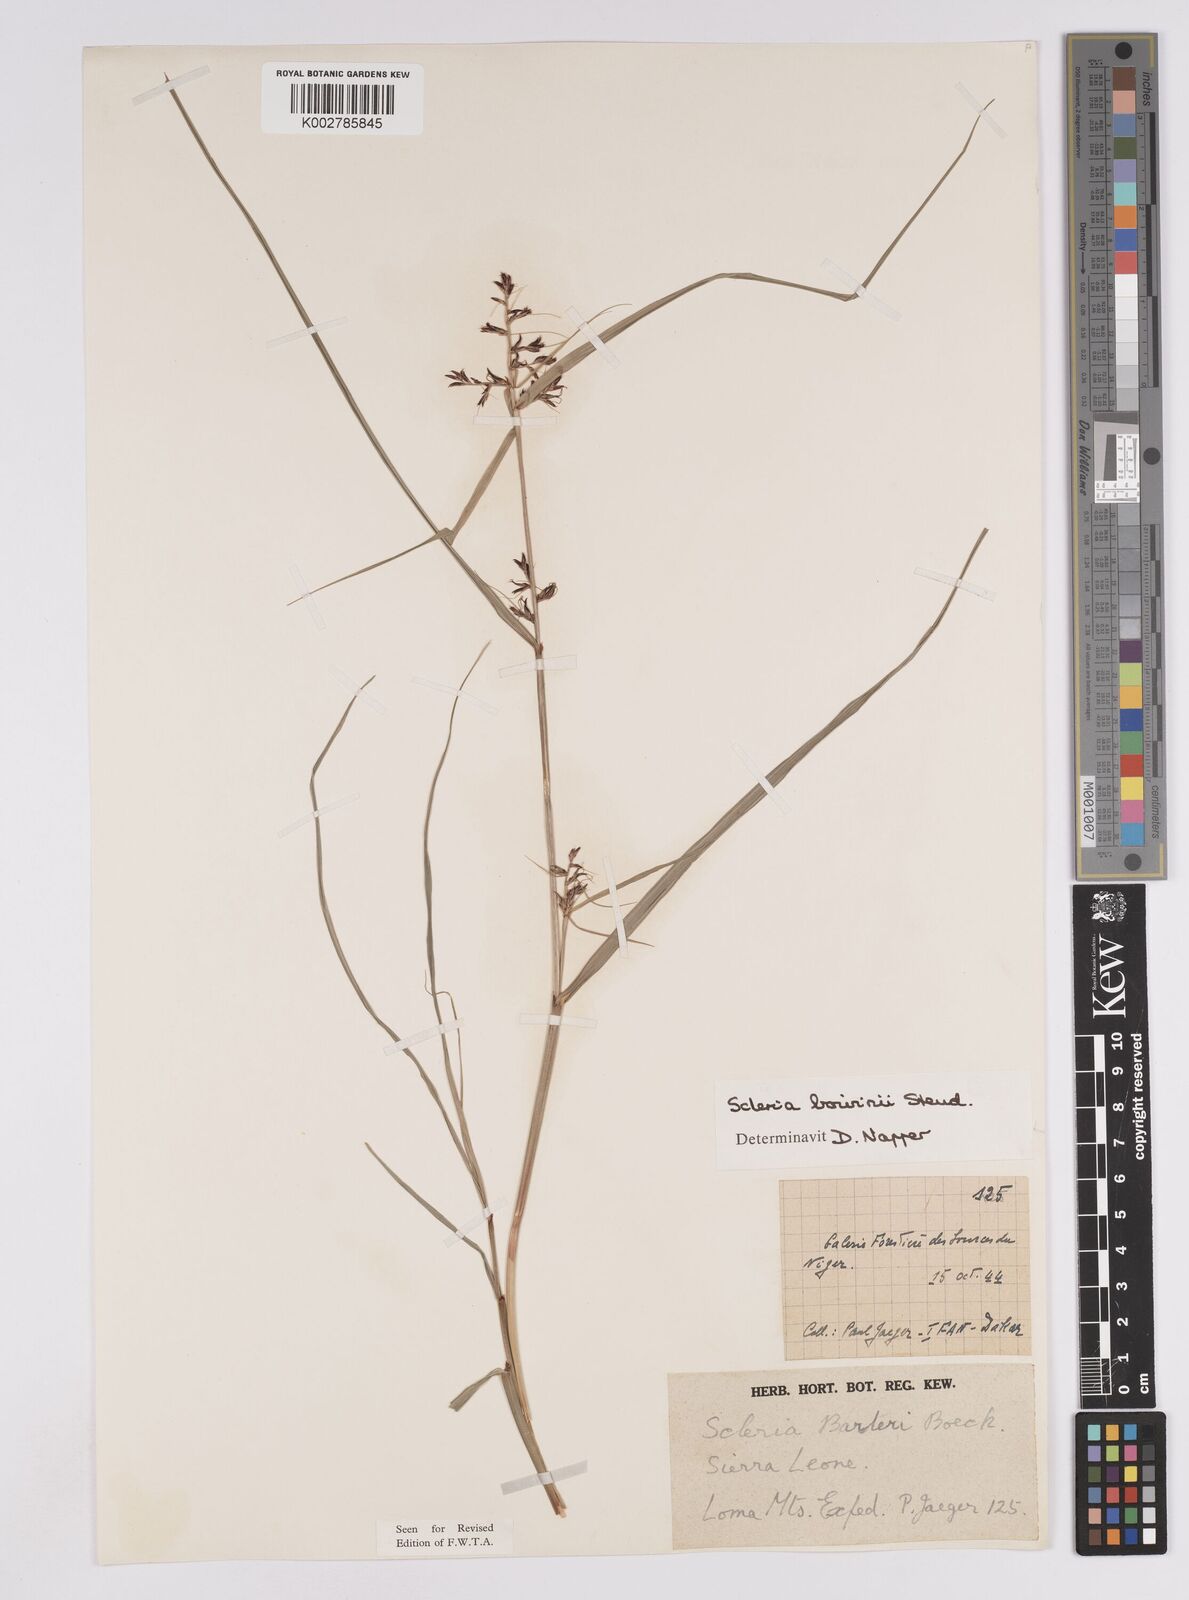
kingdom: Plantae
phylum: Tracheophyta
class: Liliopsida
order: Poales
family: Cyperaceae
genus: Scleria
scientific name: Scleria boivinii
